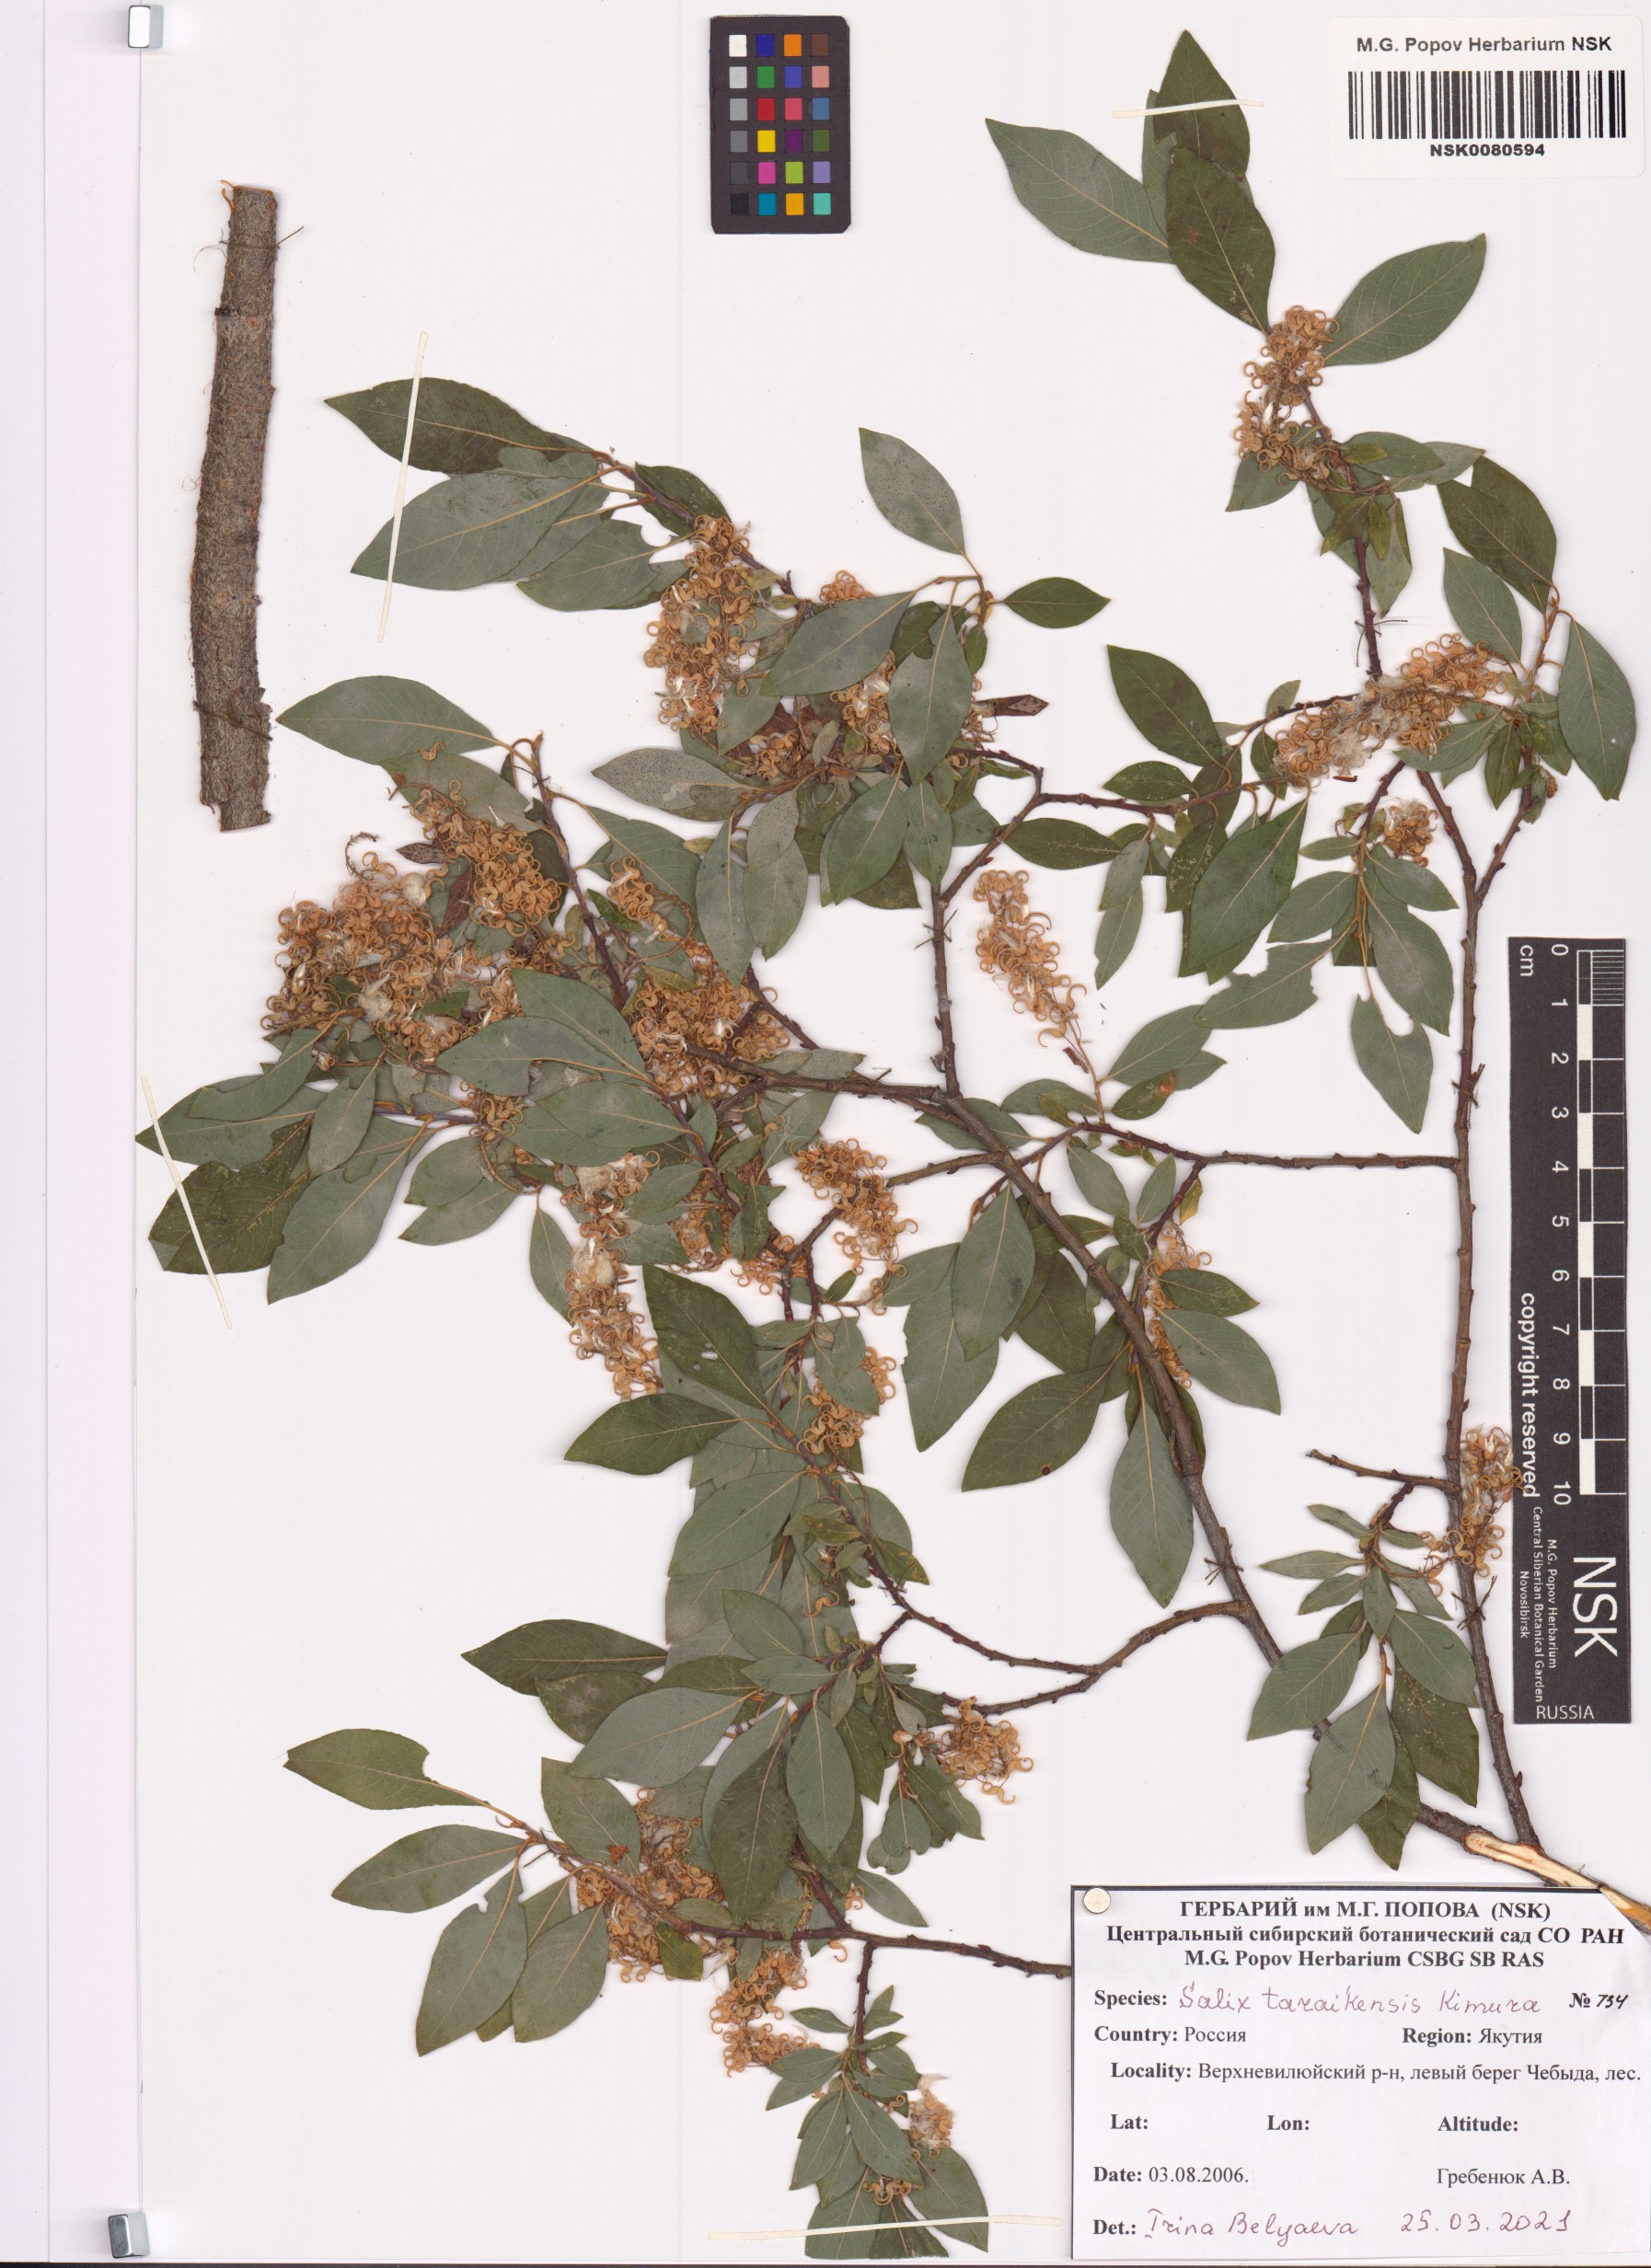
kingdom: Plantae
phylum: Tracheophyta
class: Magnoliopsida
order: Malpighiales
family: Salicaceae
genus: Salix
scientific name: Salix taraikensis
